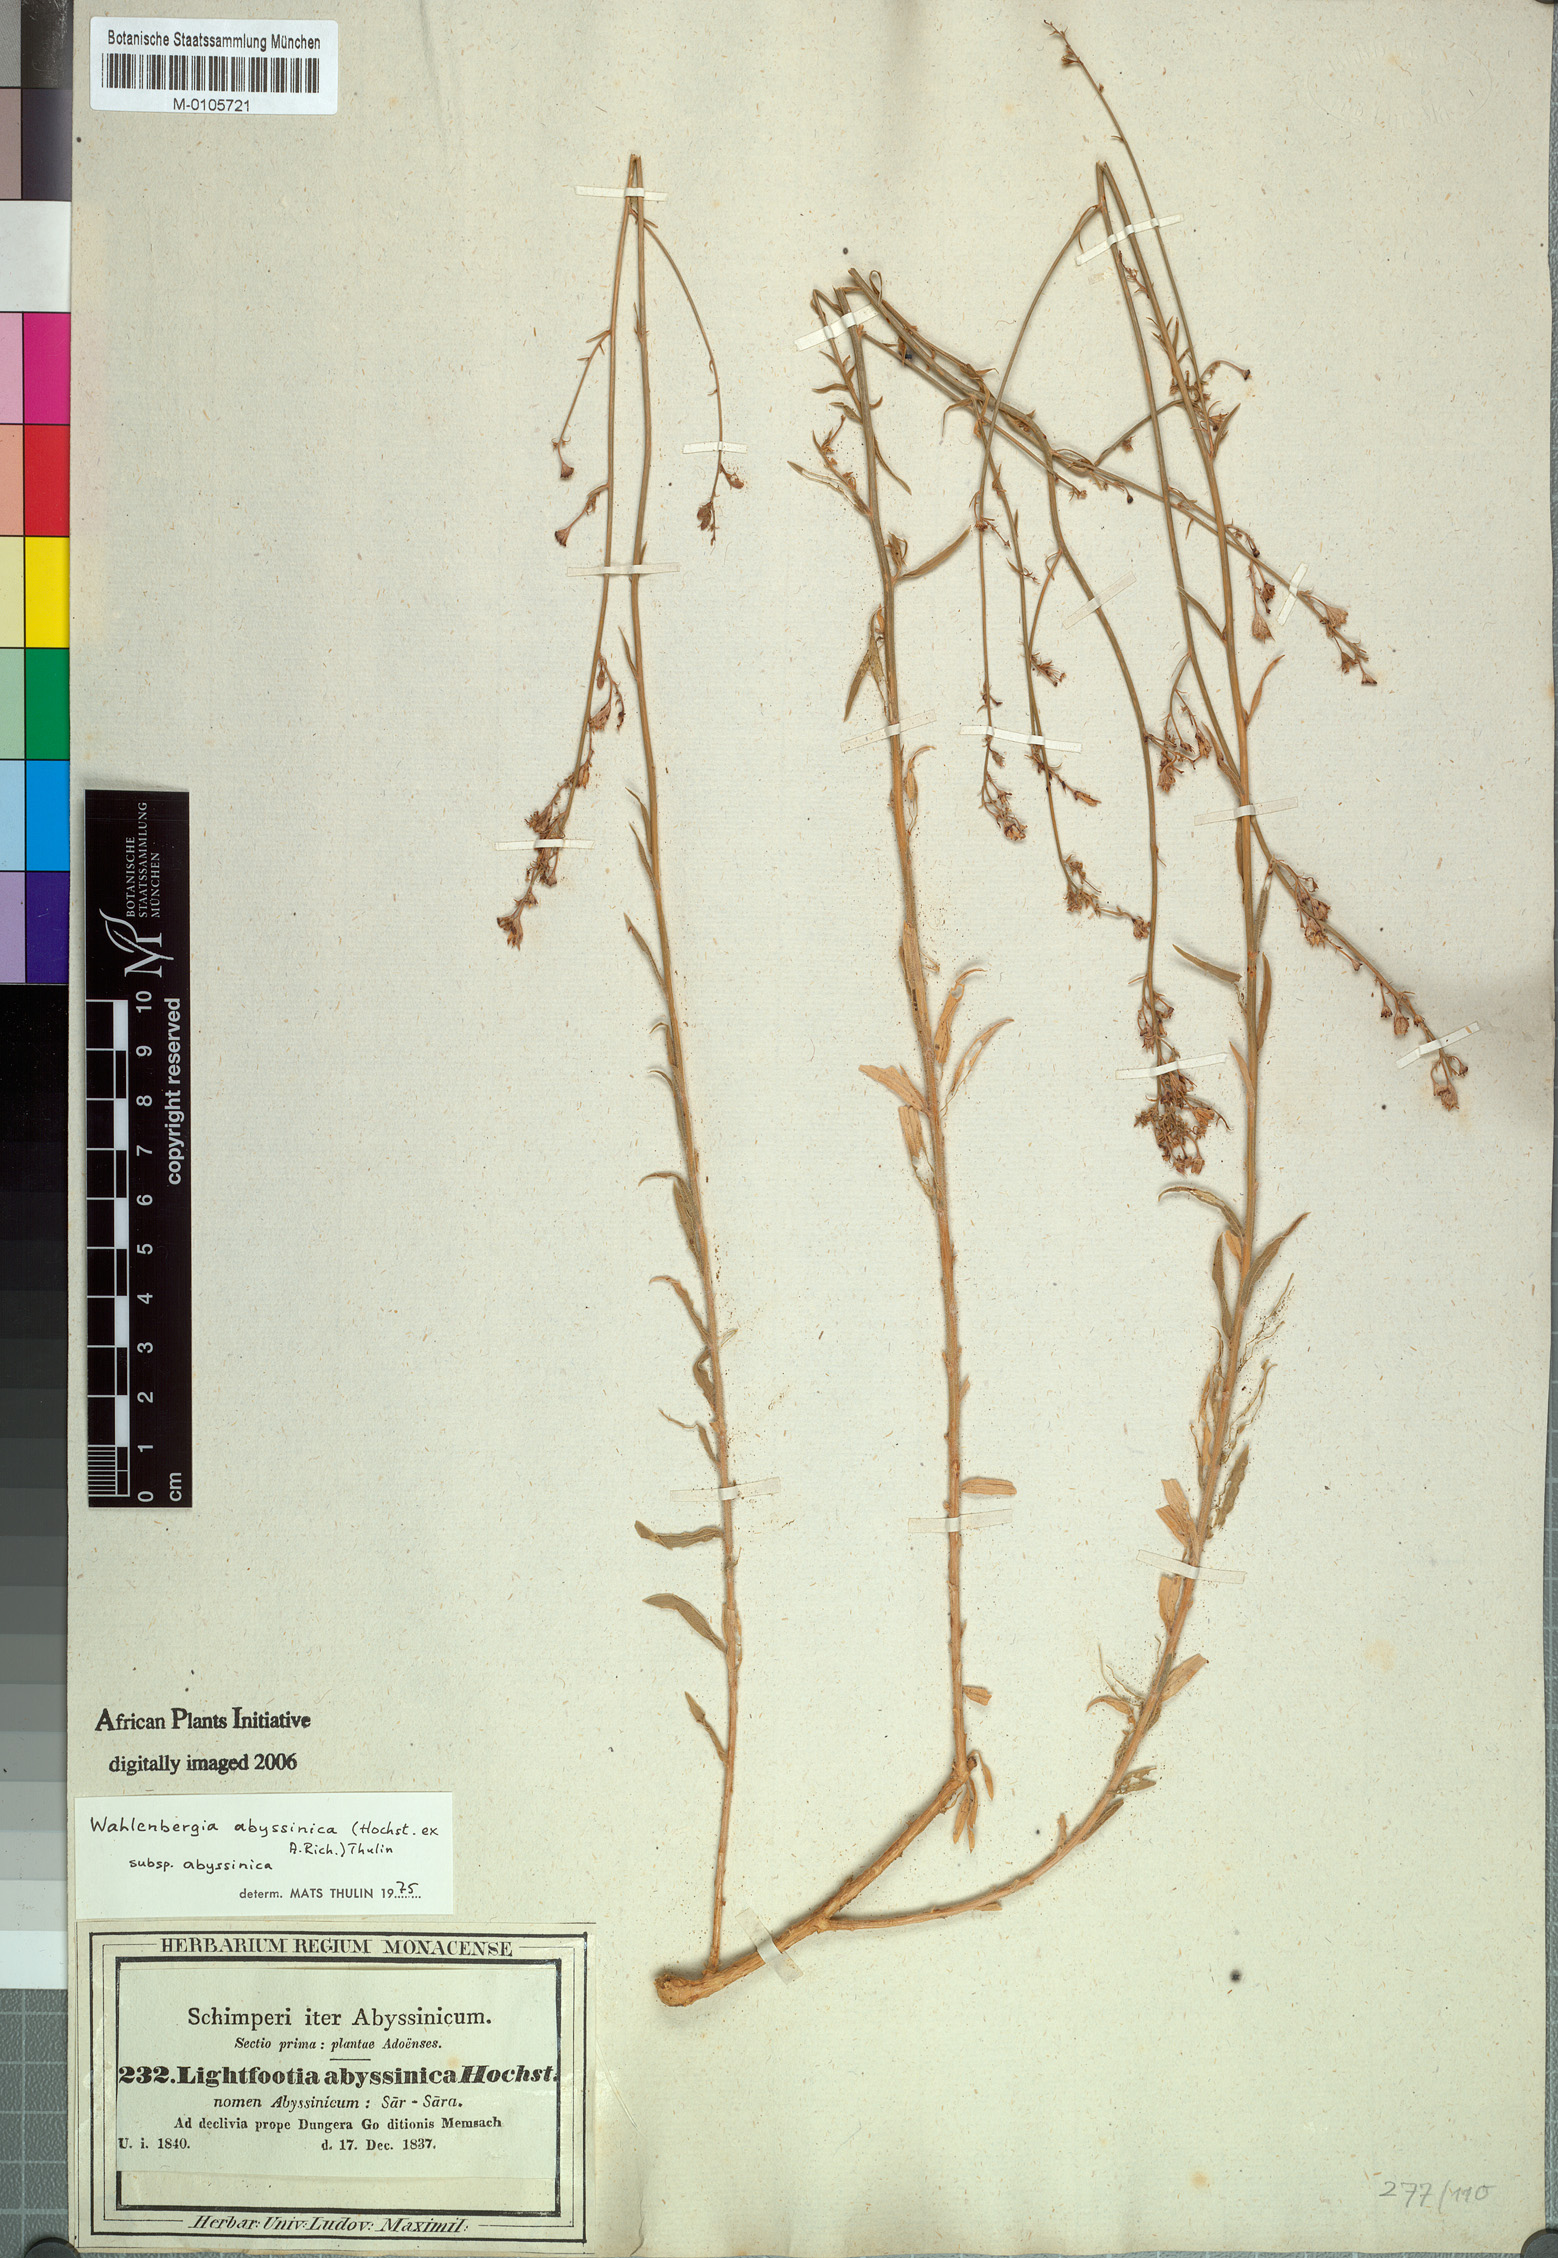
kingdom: Plantae
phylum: Tracheophyta
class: Magnoliopsida
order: Asterales
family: Campanulaceae
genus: Wahlenbergia
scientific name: Wahlenbergia abyssinica
